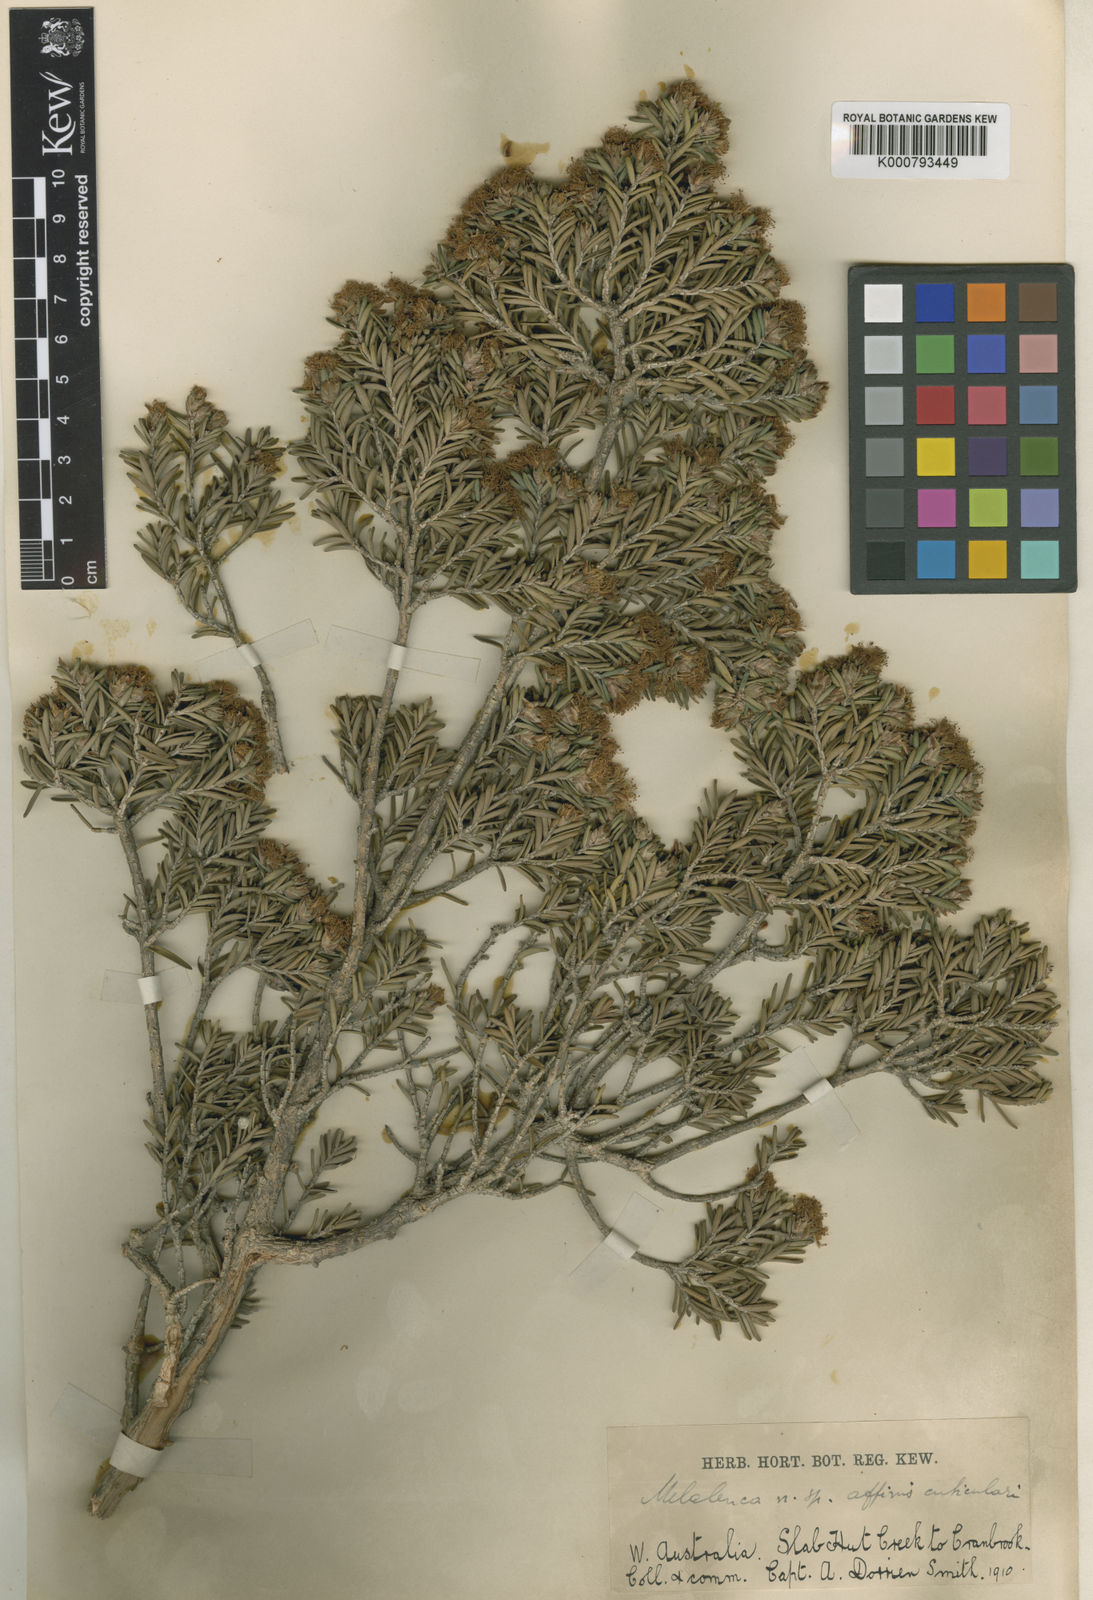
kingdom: Plantae
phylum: Tracheophyta
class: Magnoliopsida
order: Myrtales
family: Myrtaceae
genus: Melaleuca
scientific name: Melaleuca cuticularis
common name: Saltwater paperbark
